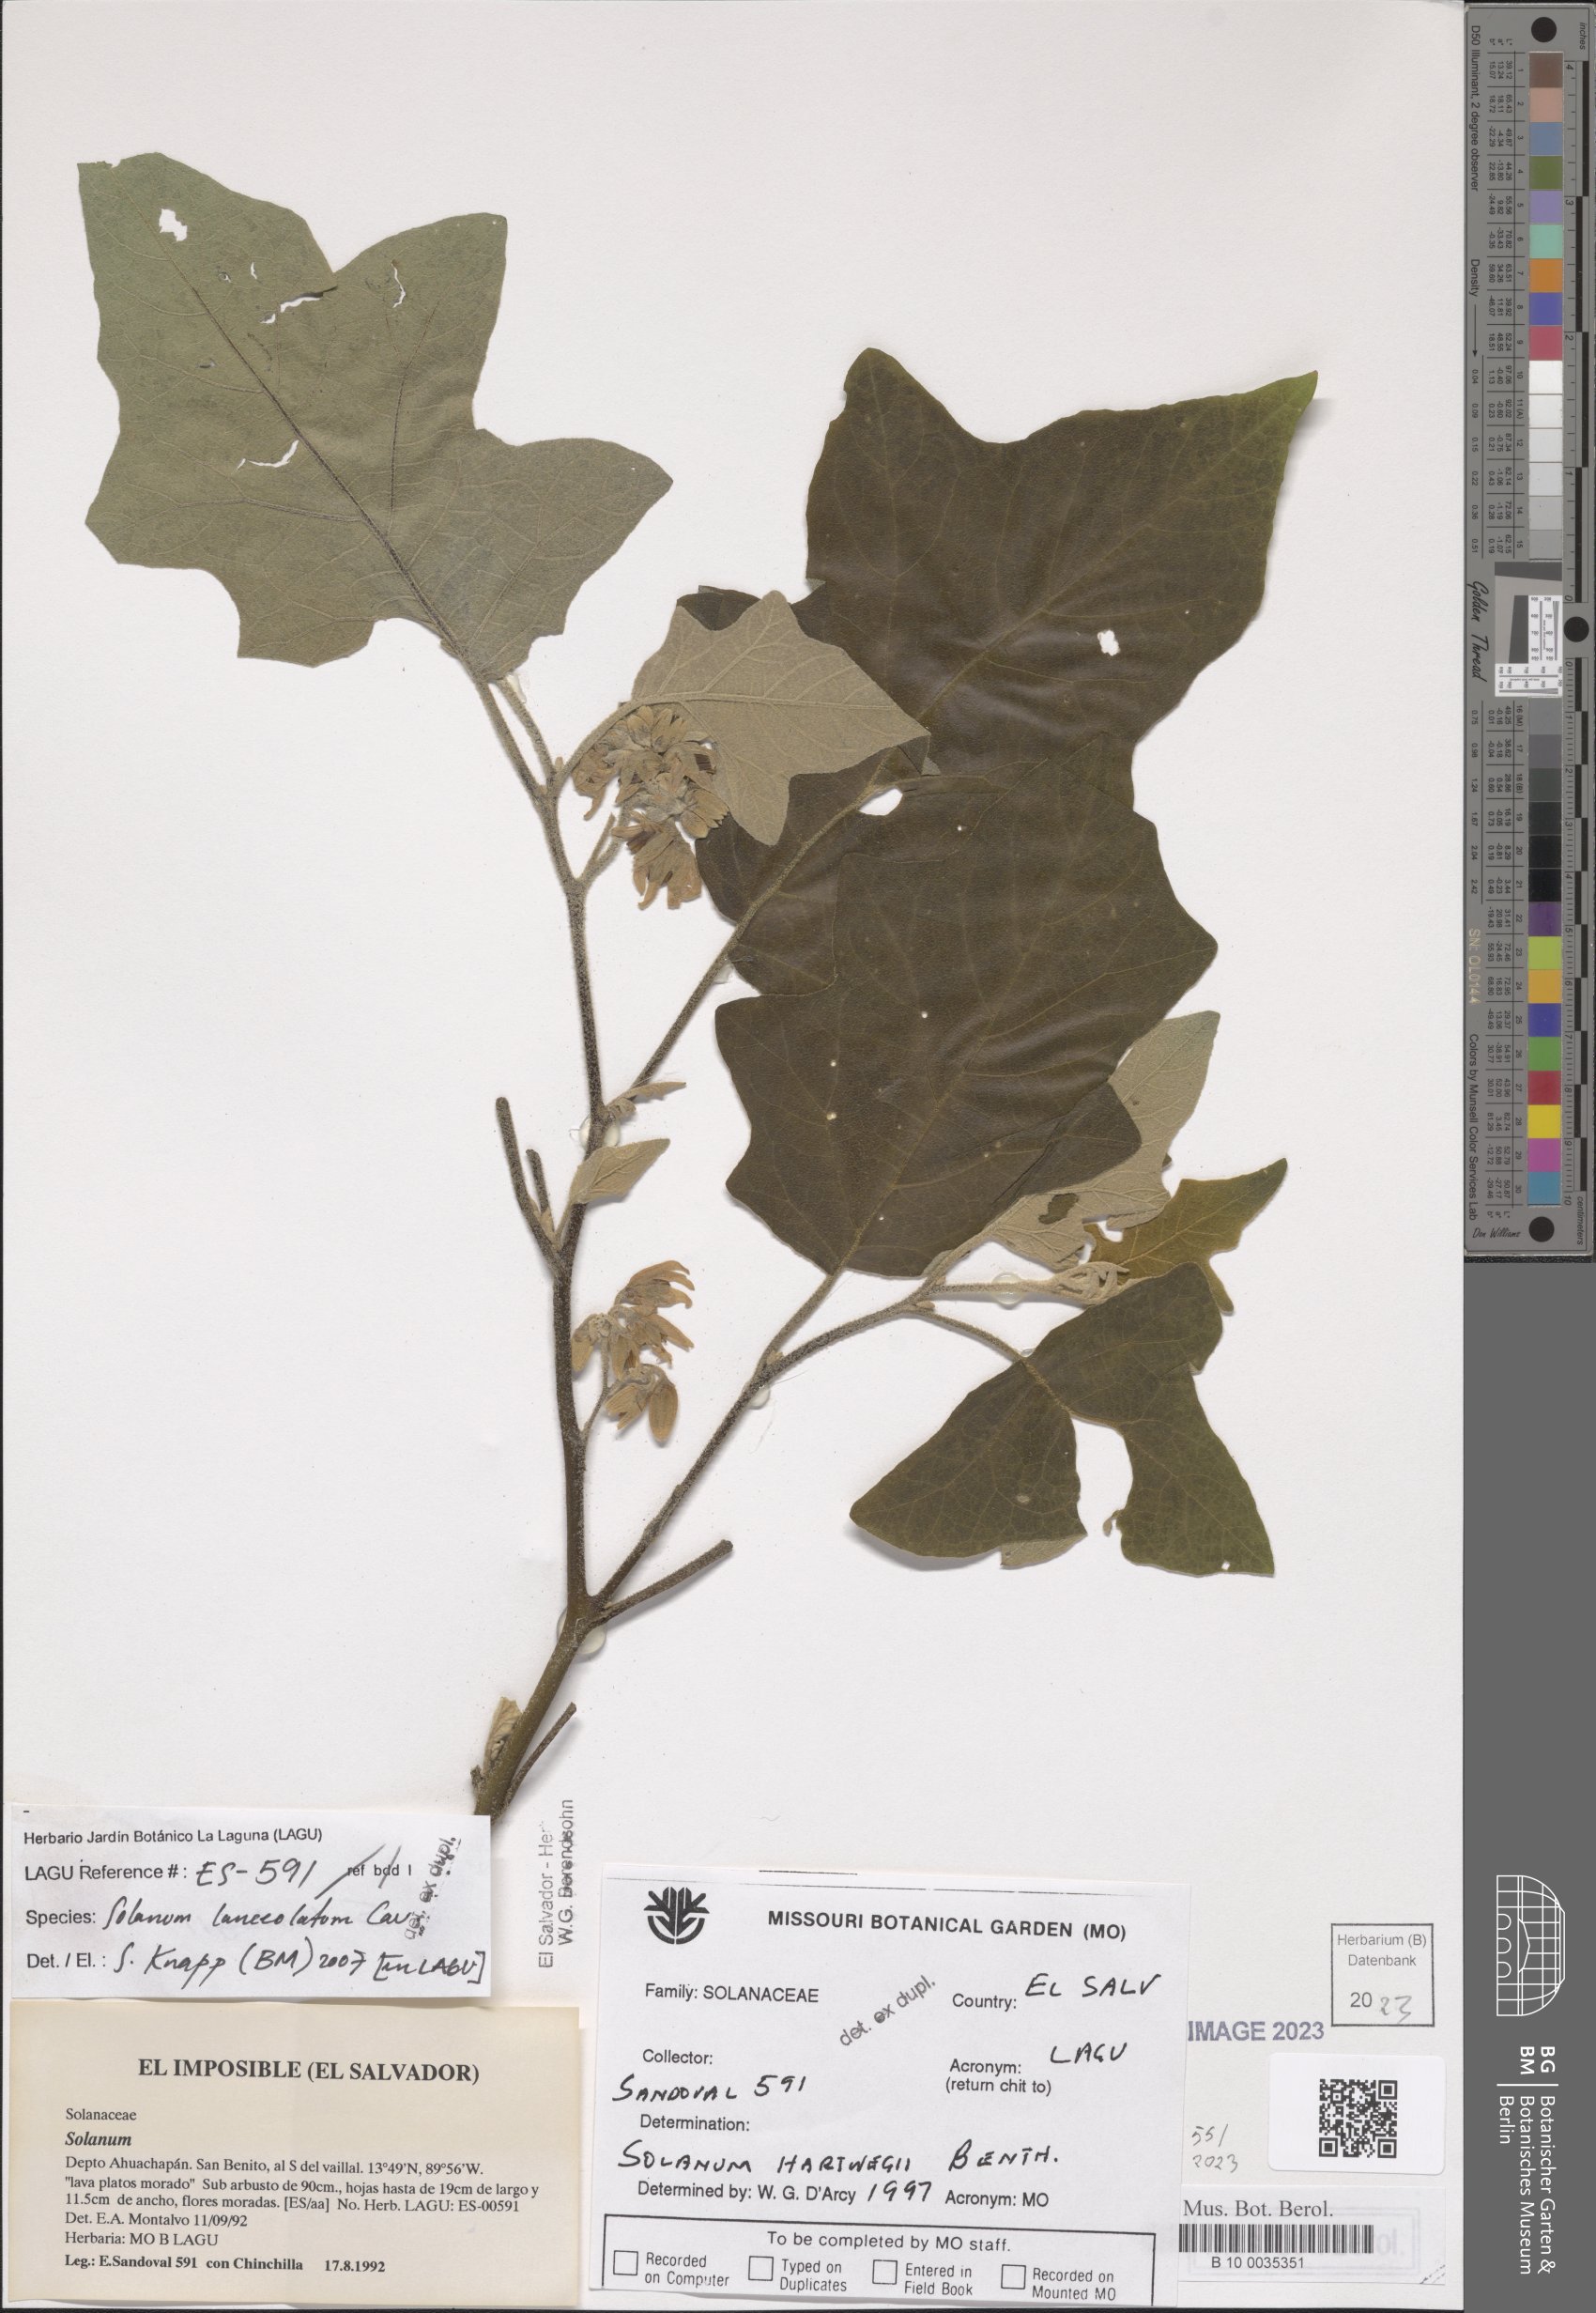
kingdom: Plantae
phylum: Tracheophyta
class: Magnoliopsida
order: Solanales
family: Solanaceae
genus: Solanum
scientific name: Solanum lanceolatum
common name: Orangeberry nightshade
